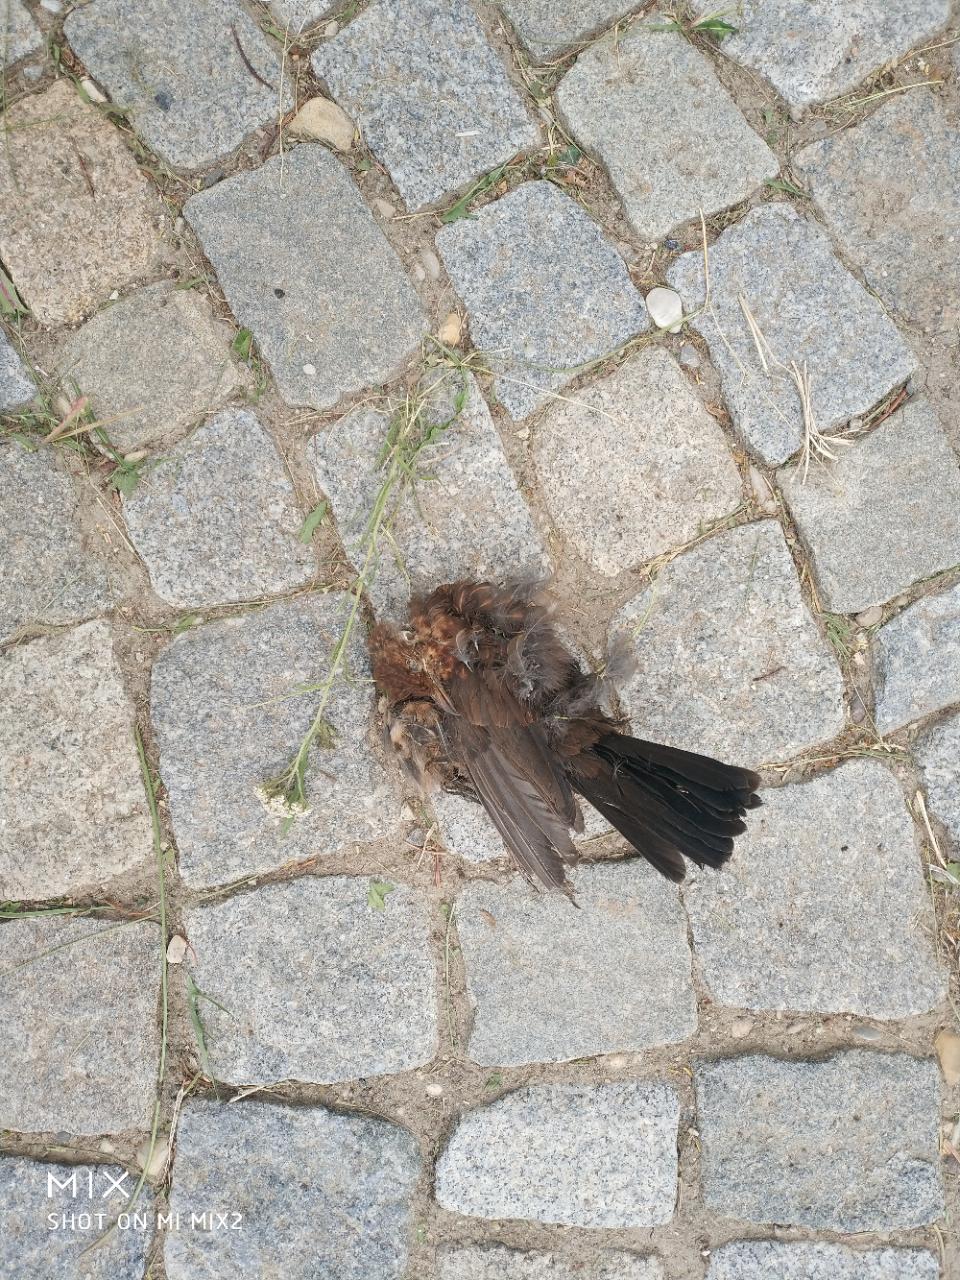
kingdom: Animalia
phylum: Chordata
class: Aves
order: Passeriformes
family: Turdidae
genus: Turdus
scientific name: Turdus merula
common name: Common blackbird
